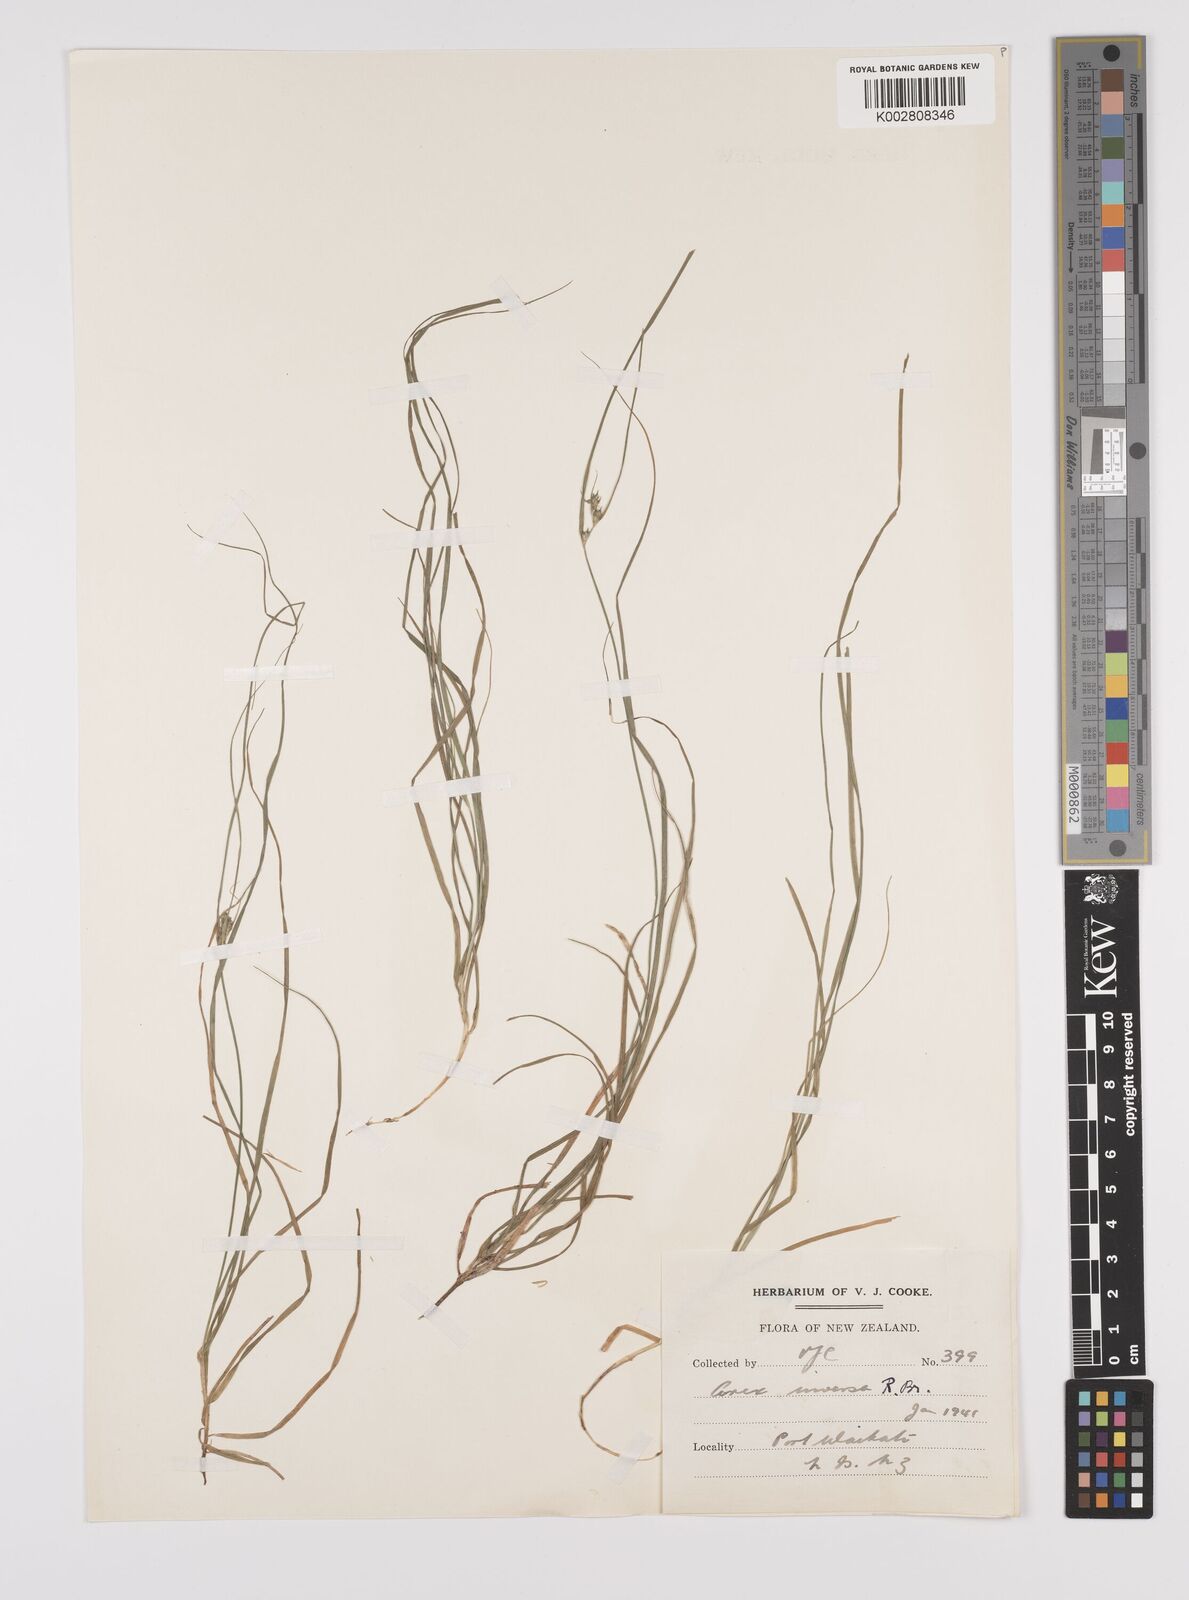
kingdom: Plantae
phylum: Tracheophyta
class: Liliopsida
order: Poales
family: Cyperaceae
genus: Carex
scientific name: Carex inversa
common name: Knob sedge
